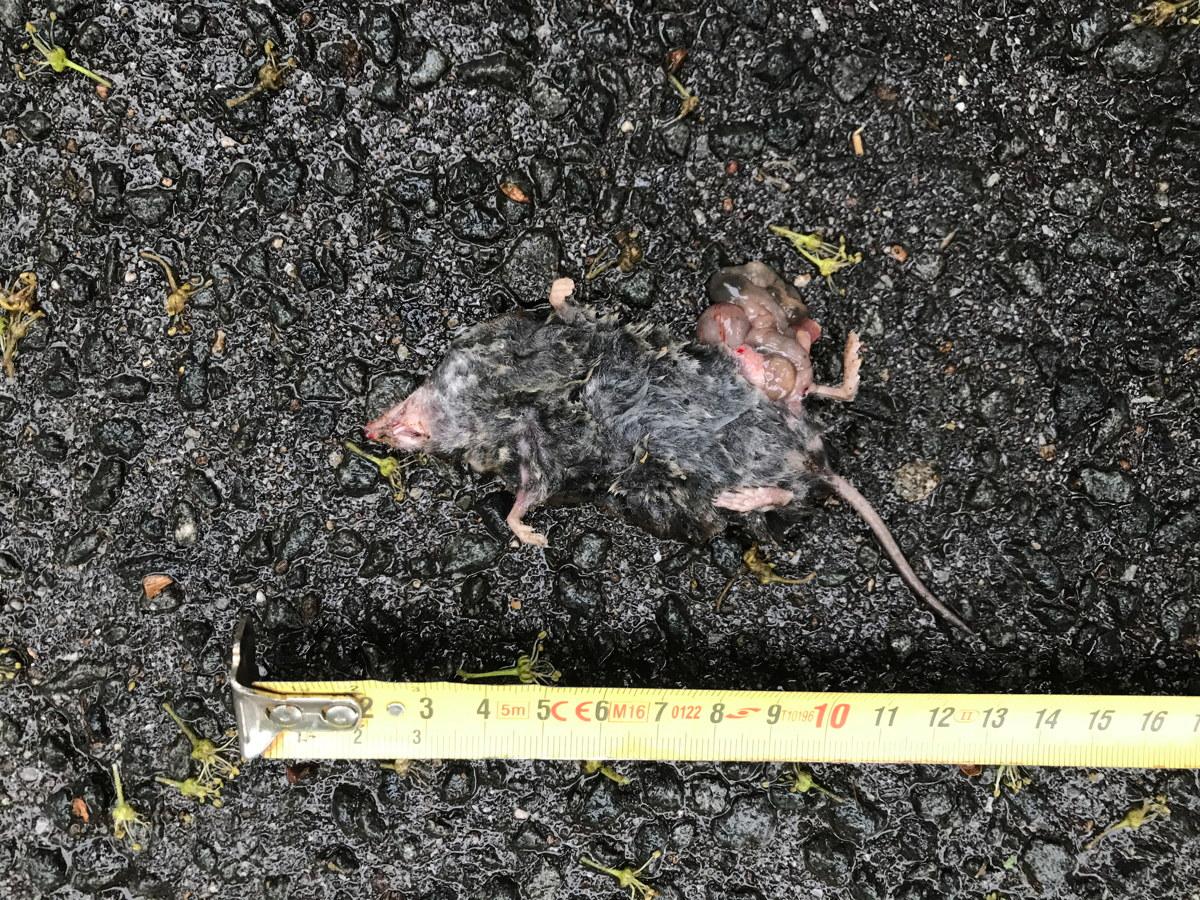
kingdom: Animalia
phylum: Chordata
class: Mammalia
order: Soricomorpha
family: Soricidae
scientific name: Soricidae
